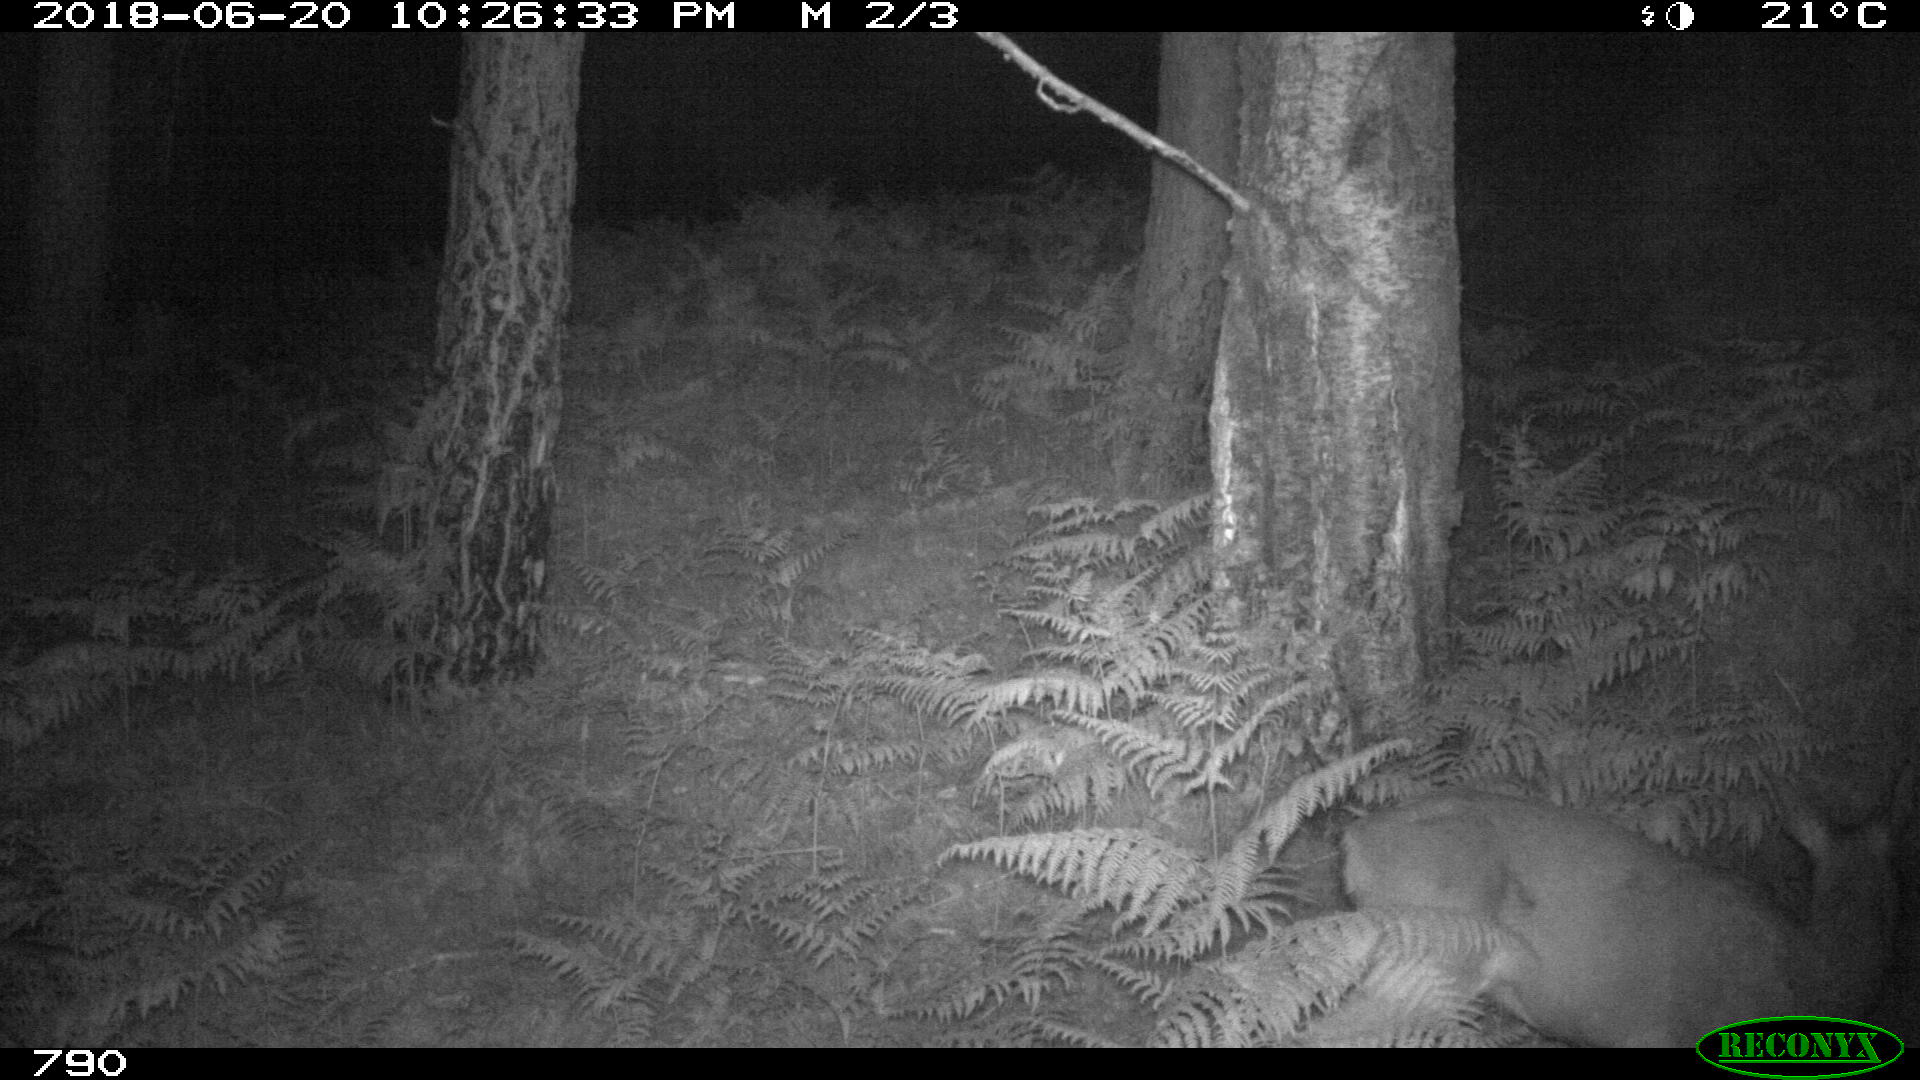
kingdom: Animalia
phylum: Chordata
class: Mammalia
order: Artiodactyla
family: Cervidae
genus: Capreolus
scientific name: Capreolus capreolus
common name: Western roe deer
